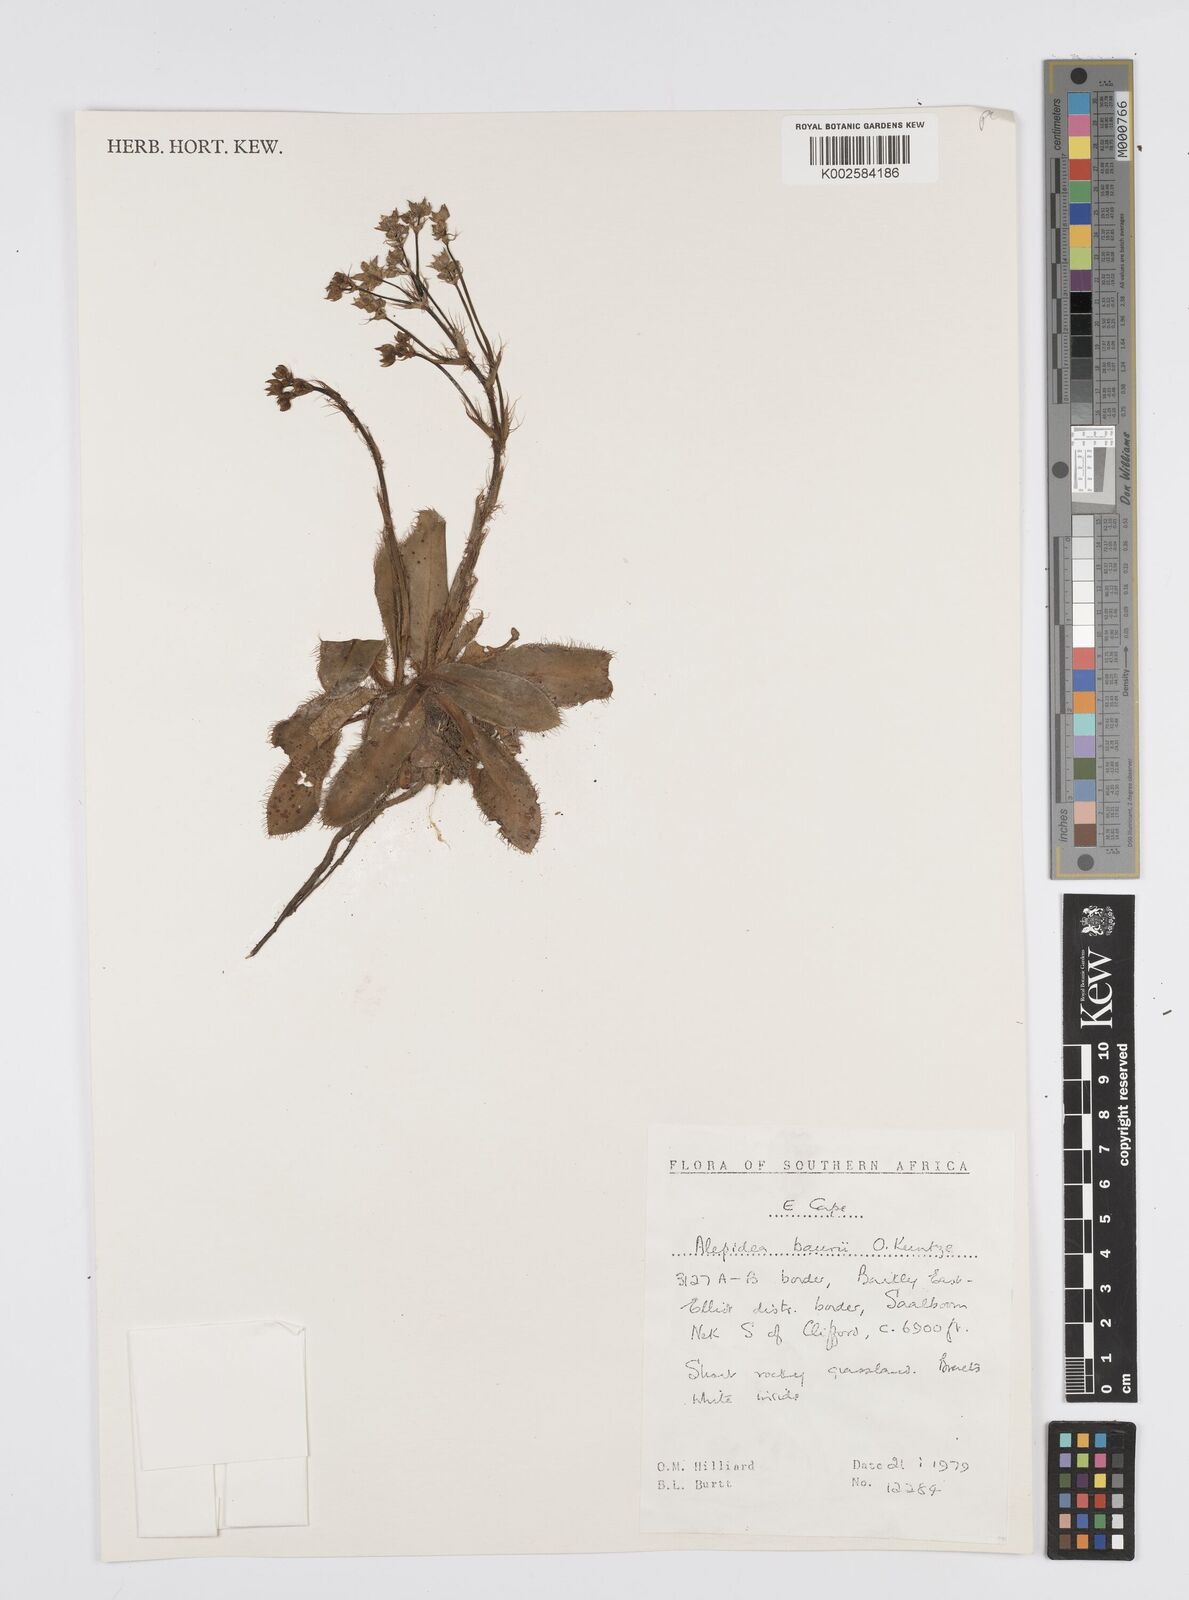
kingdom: Plantae
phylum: Tracheophyta
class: Magnoliopsida
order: Apiales
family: Apiaceae
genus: Alepidea
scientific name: Alepidea natalensis
